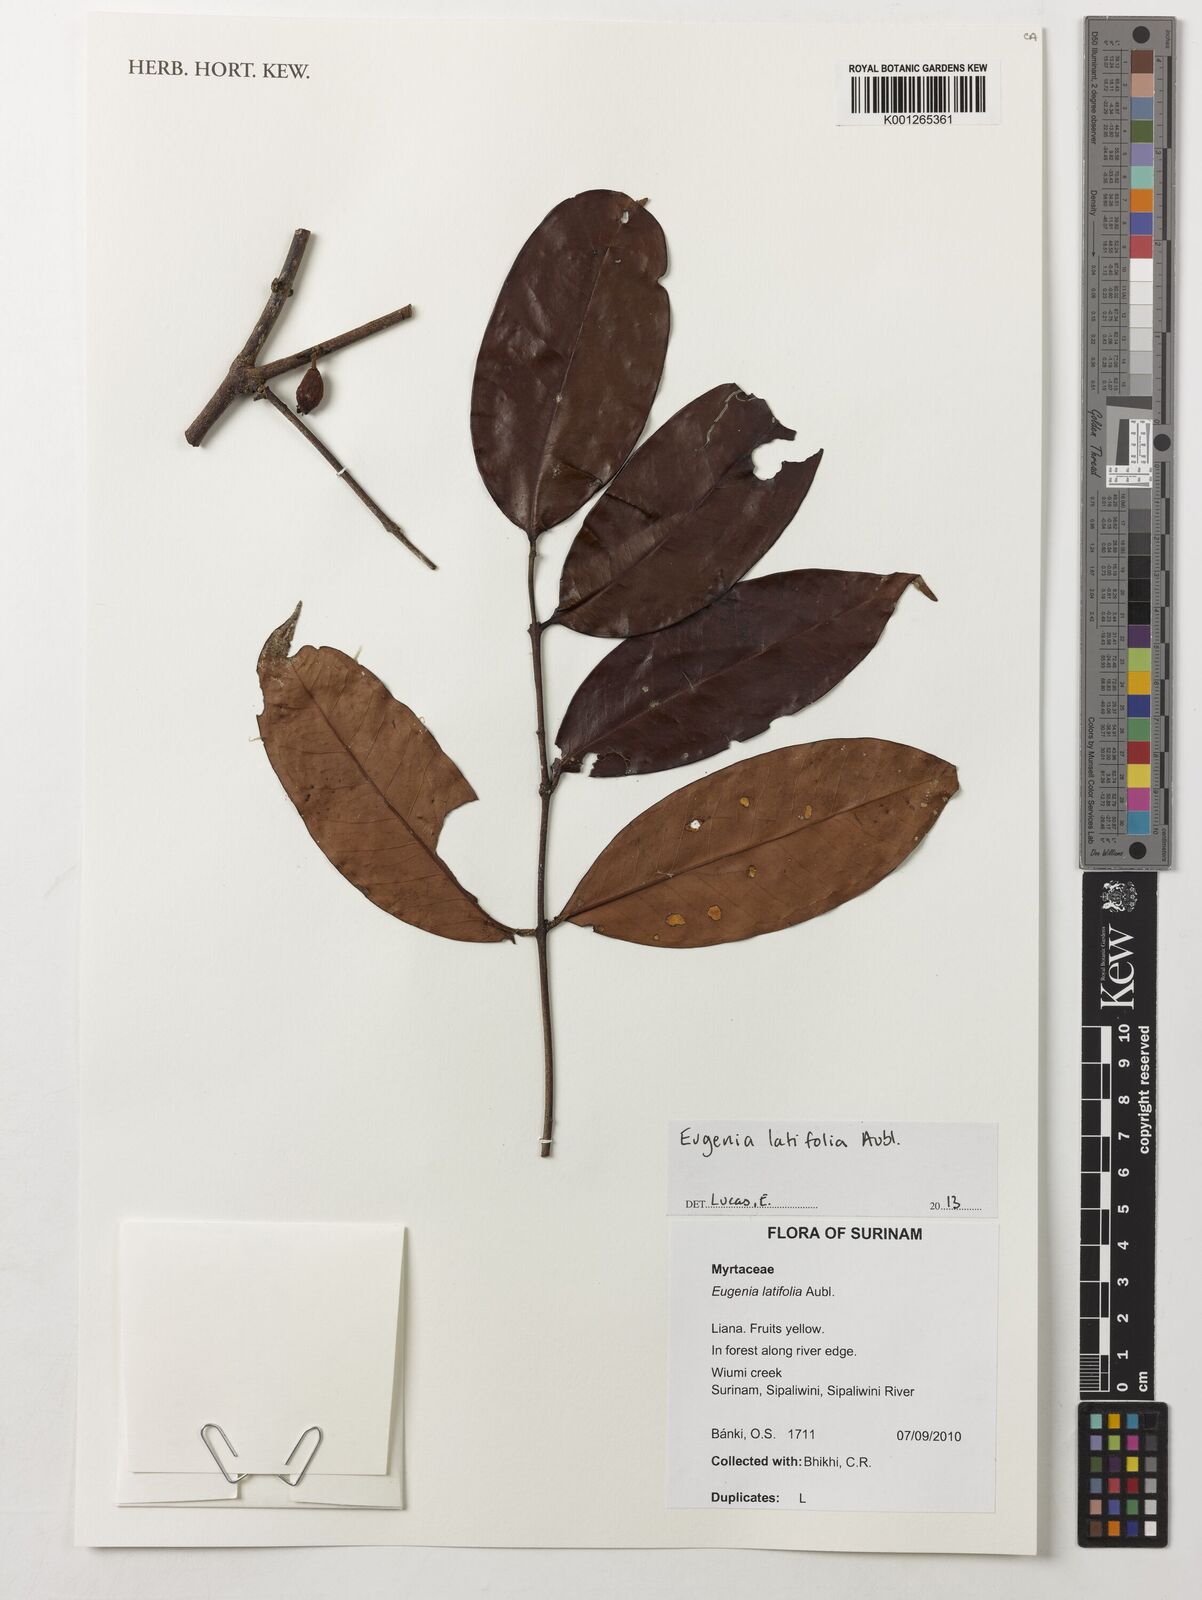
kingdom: Plantae
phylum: Tracheophyta
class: Magnoliopsida
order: Myrtales
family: Myrtaceae
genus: Eugenia
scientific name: Eugenia latifolia
